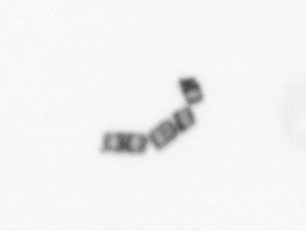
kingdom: Chromista
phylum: Ochrophyta
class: Bacillariophyceae
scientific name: Bacillariophyceae
